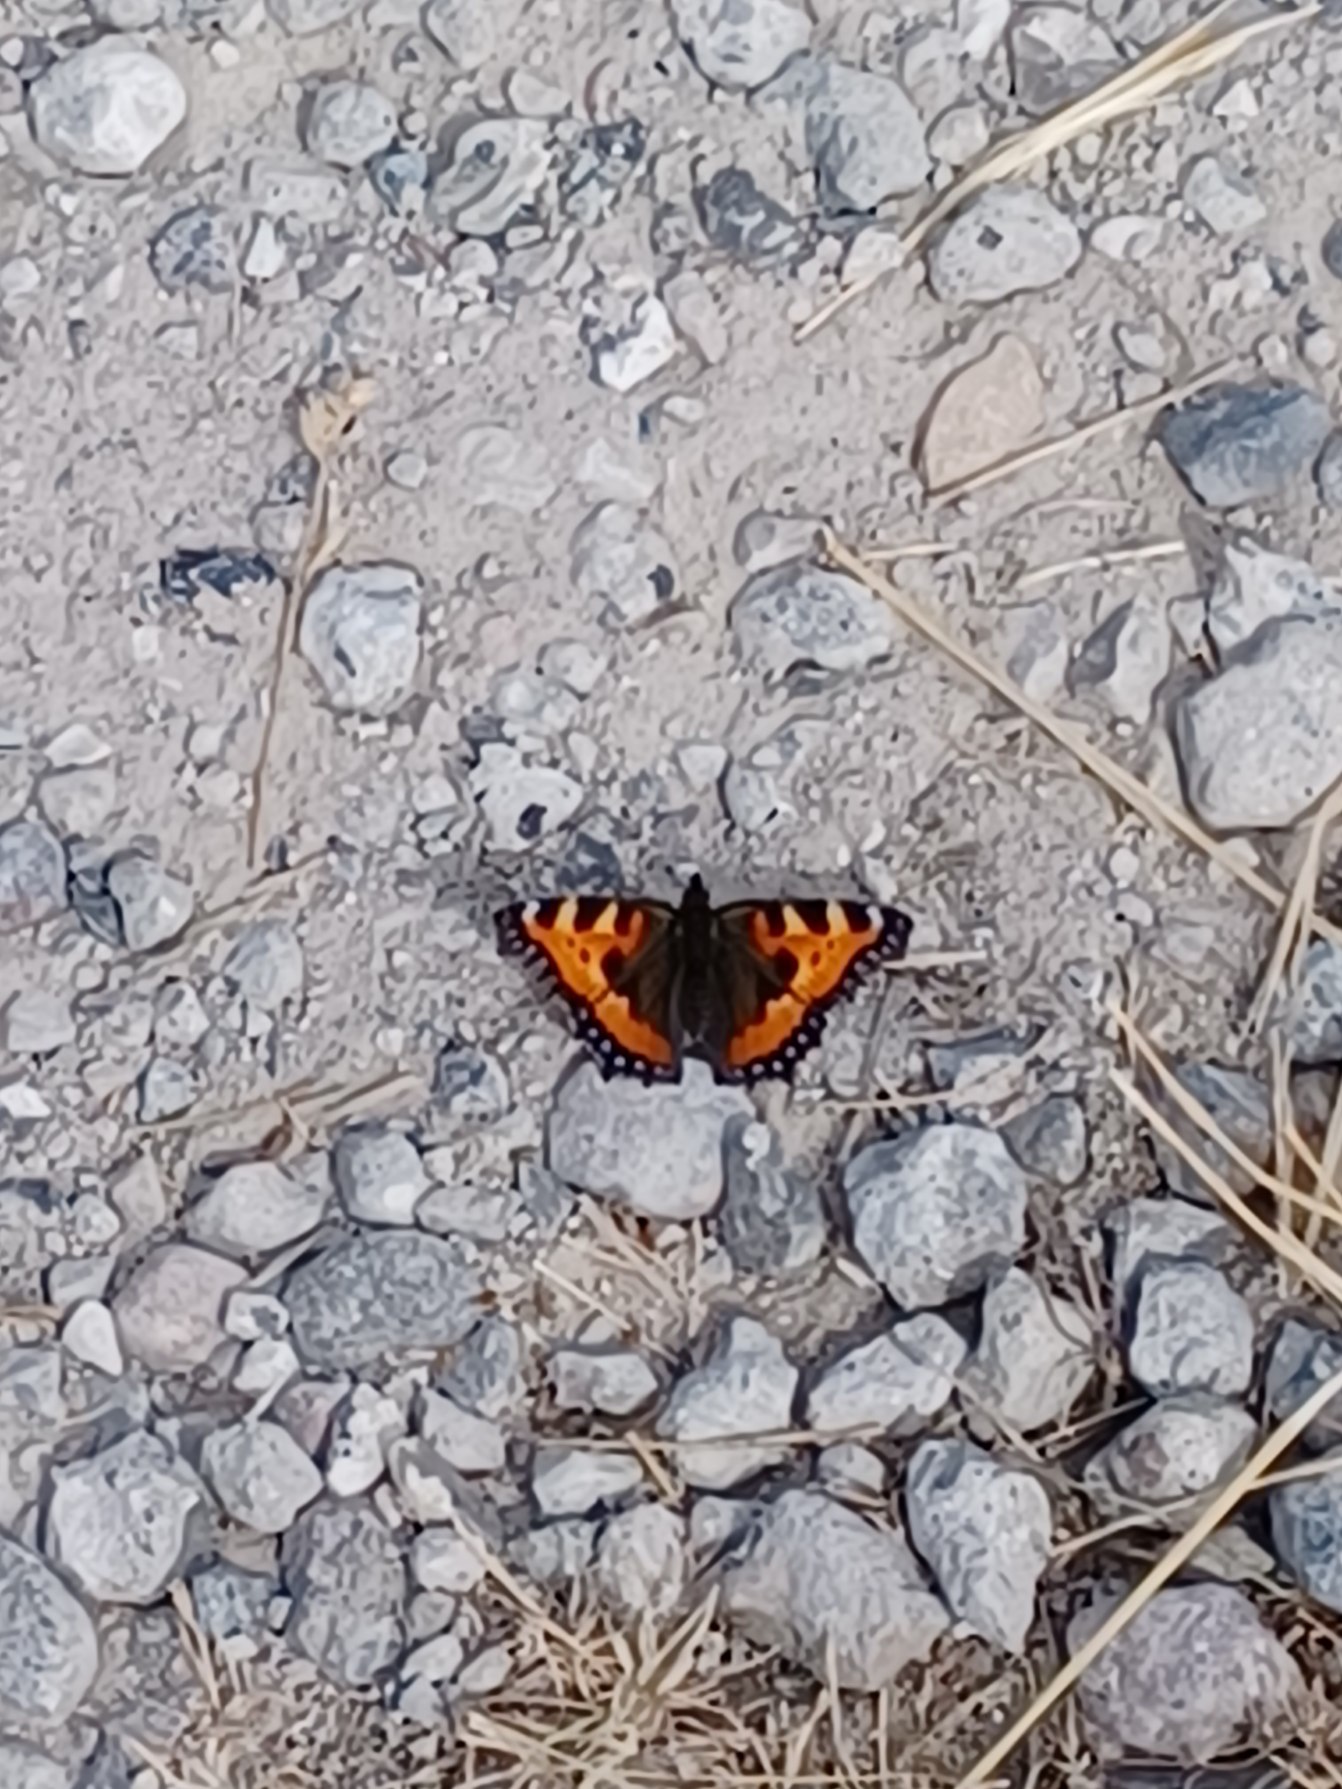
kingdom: Animalia
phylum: Arthropoda
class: Insecta
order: Lepidoptera
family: Nymphalidae
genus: Aglais
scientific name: Aglais urticae
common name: Nældens takvinge
